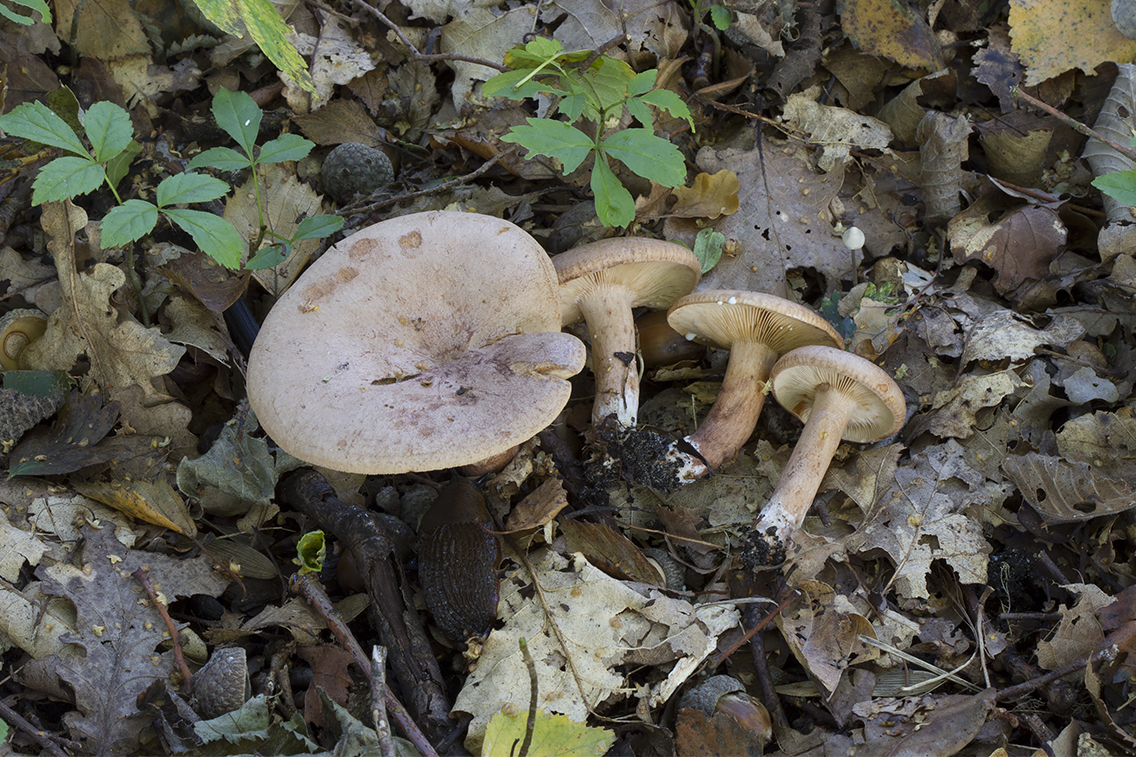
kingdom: Fungi
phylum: Basidiomycota
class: Agaricomycetes
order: Russulales
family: Russulaceae
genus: Lactarius
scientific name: Lactarius quietus
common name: ege-mælkehat
